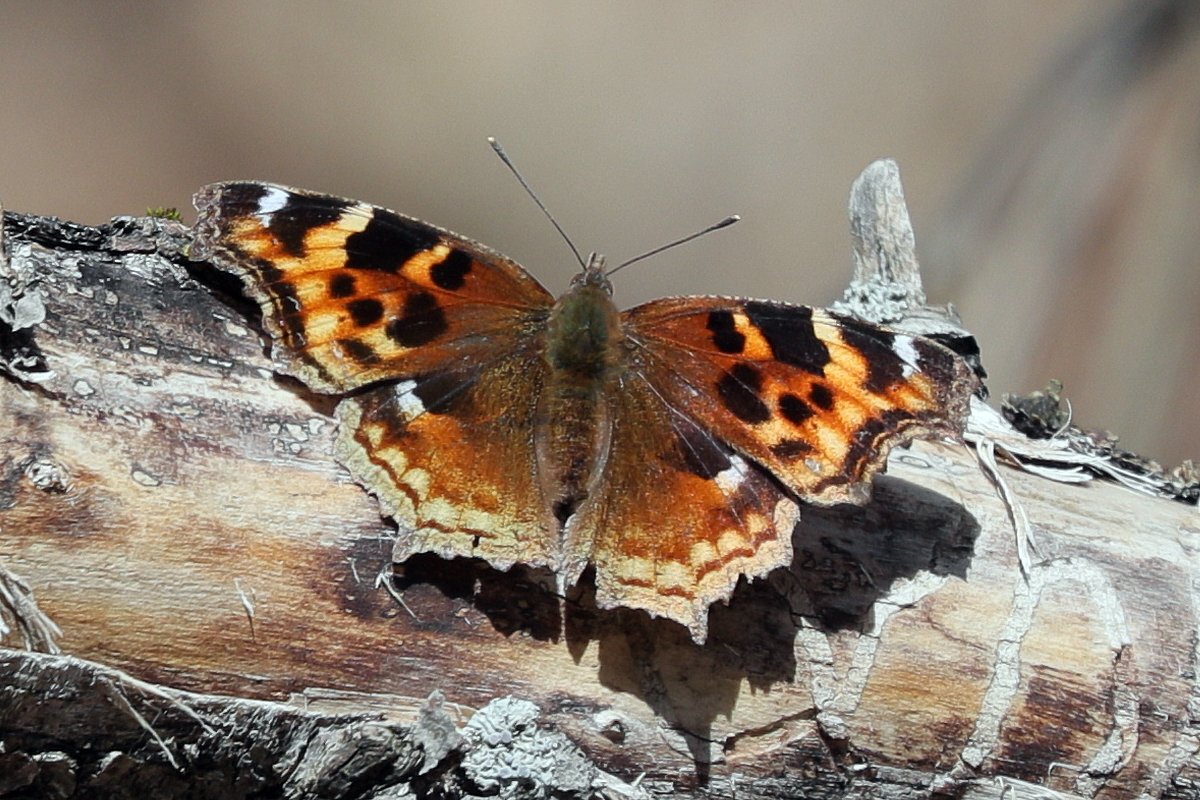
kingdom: Animalia
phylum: Arthropoda
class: Insecta
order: Lepidoptera
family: Nymphalidae
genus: Polygonia
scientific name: Polygonia vaualbum
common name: Compton Tortoiseshell
